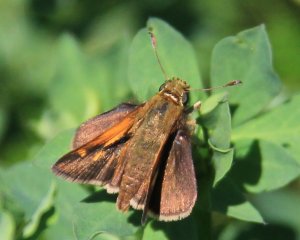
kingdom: Animalia
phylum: Arthropoda
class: Insecta
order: Lepidoptera
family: Hesperiidae
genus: Polites
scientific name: Polites themistocles
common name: Tawny-edged Skipper
